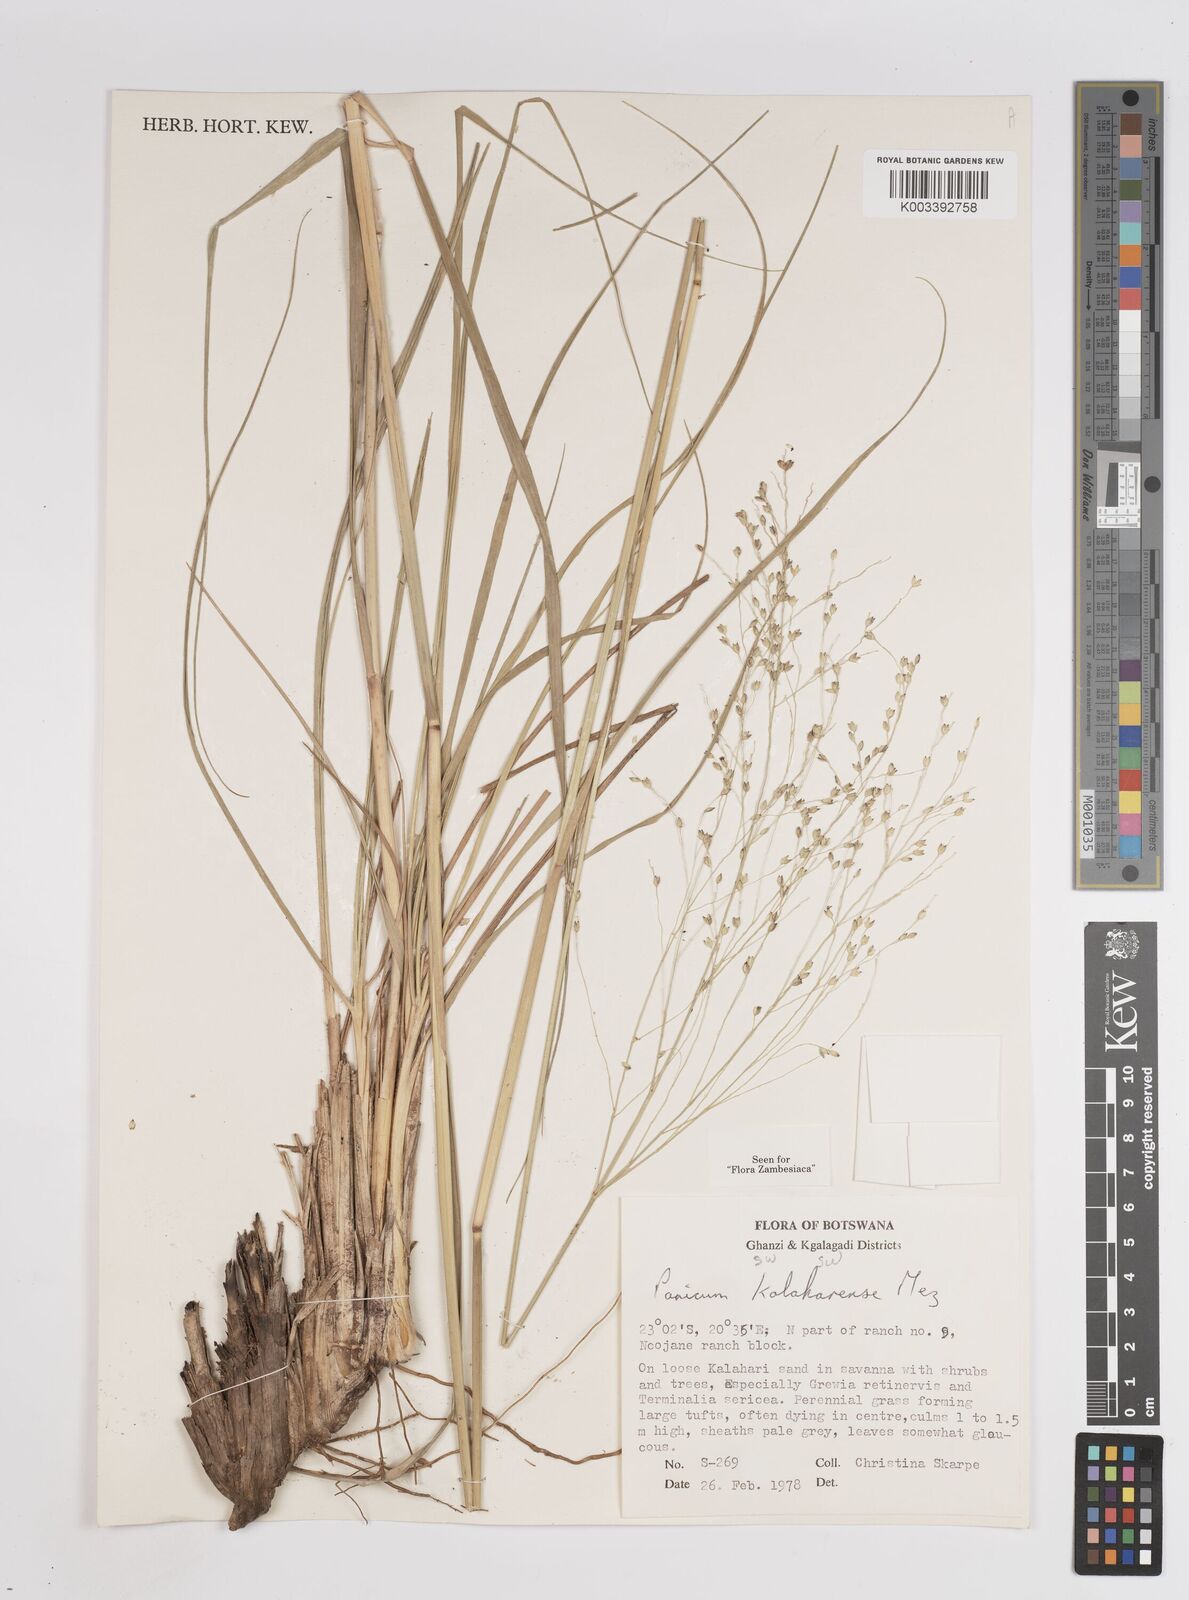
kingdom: Plantae
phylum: Tracheophyta
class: Liliopsida
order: Poales
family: Poaceae
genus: Panicum
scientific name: Panicum kalaharense
